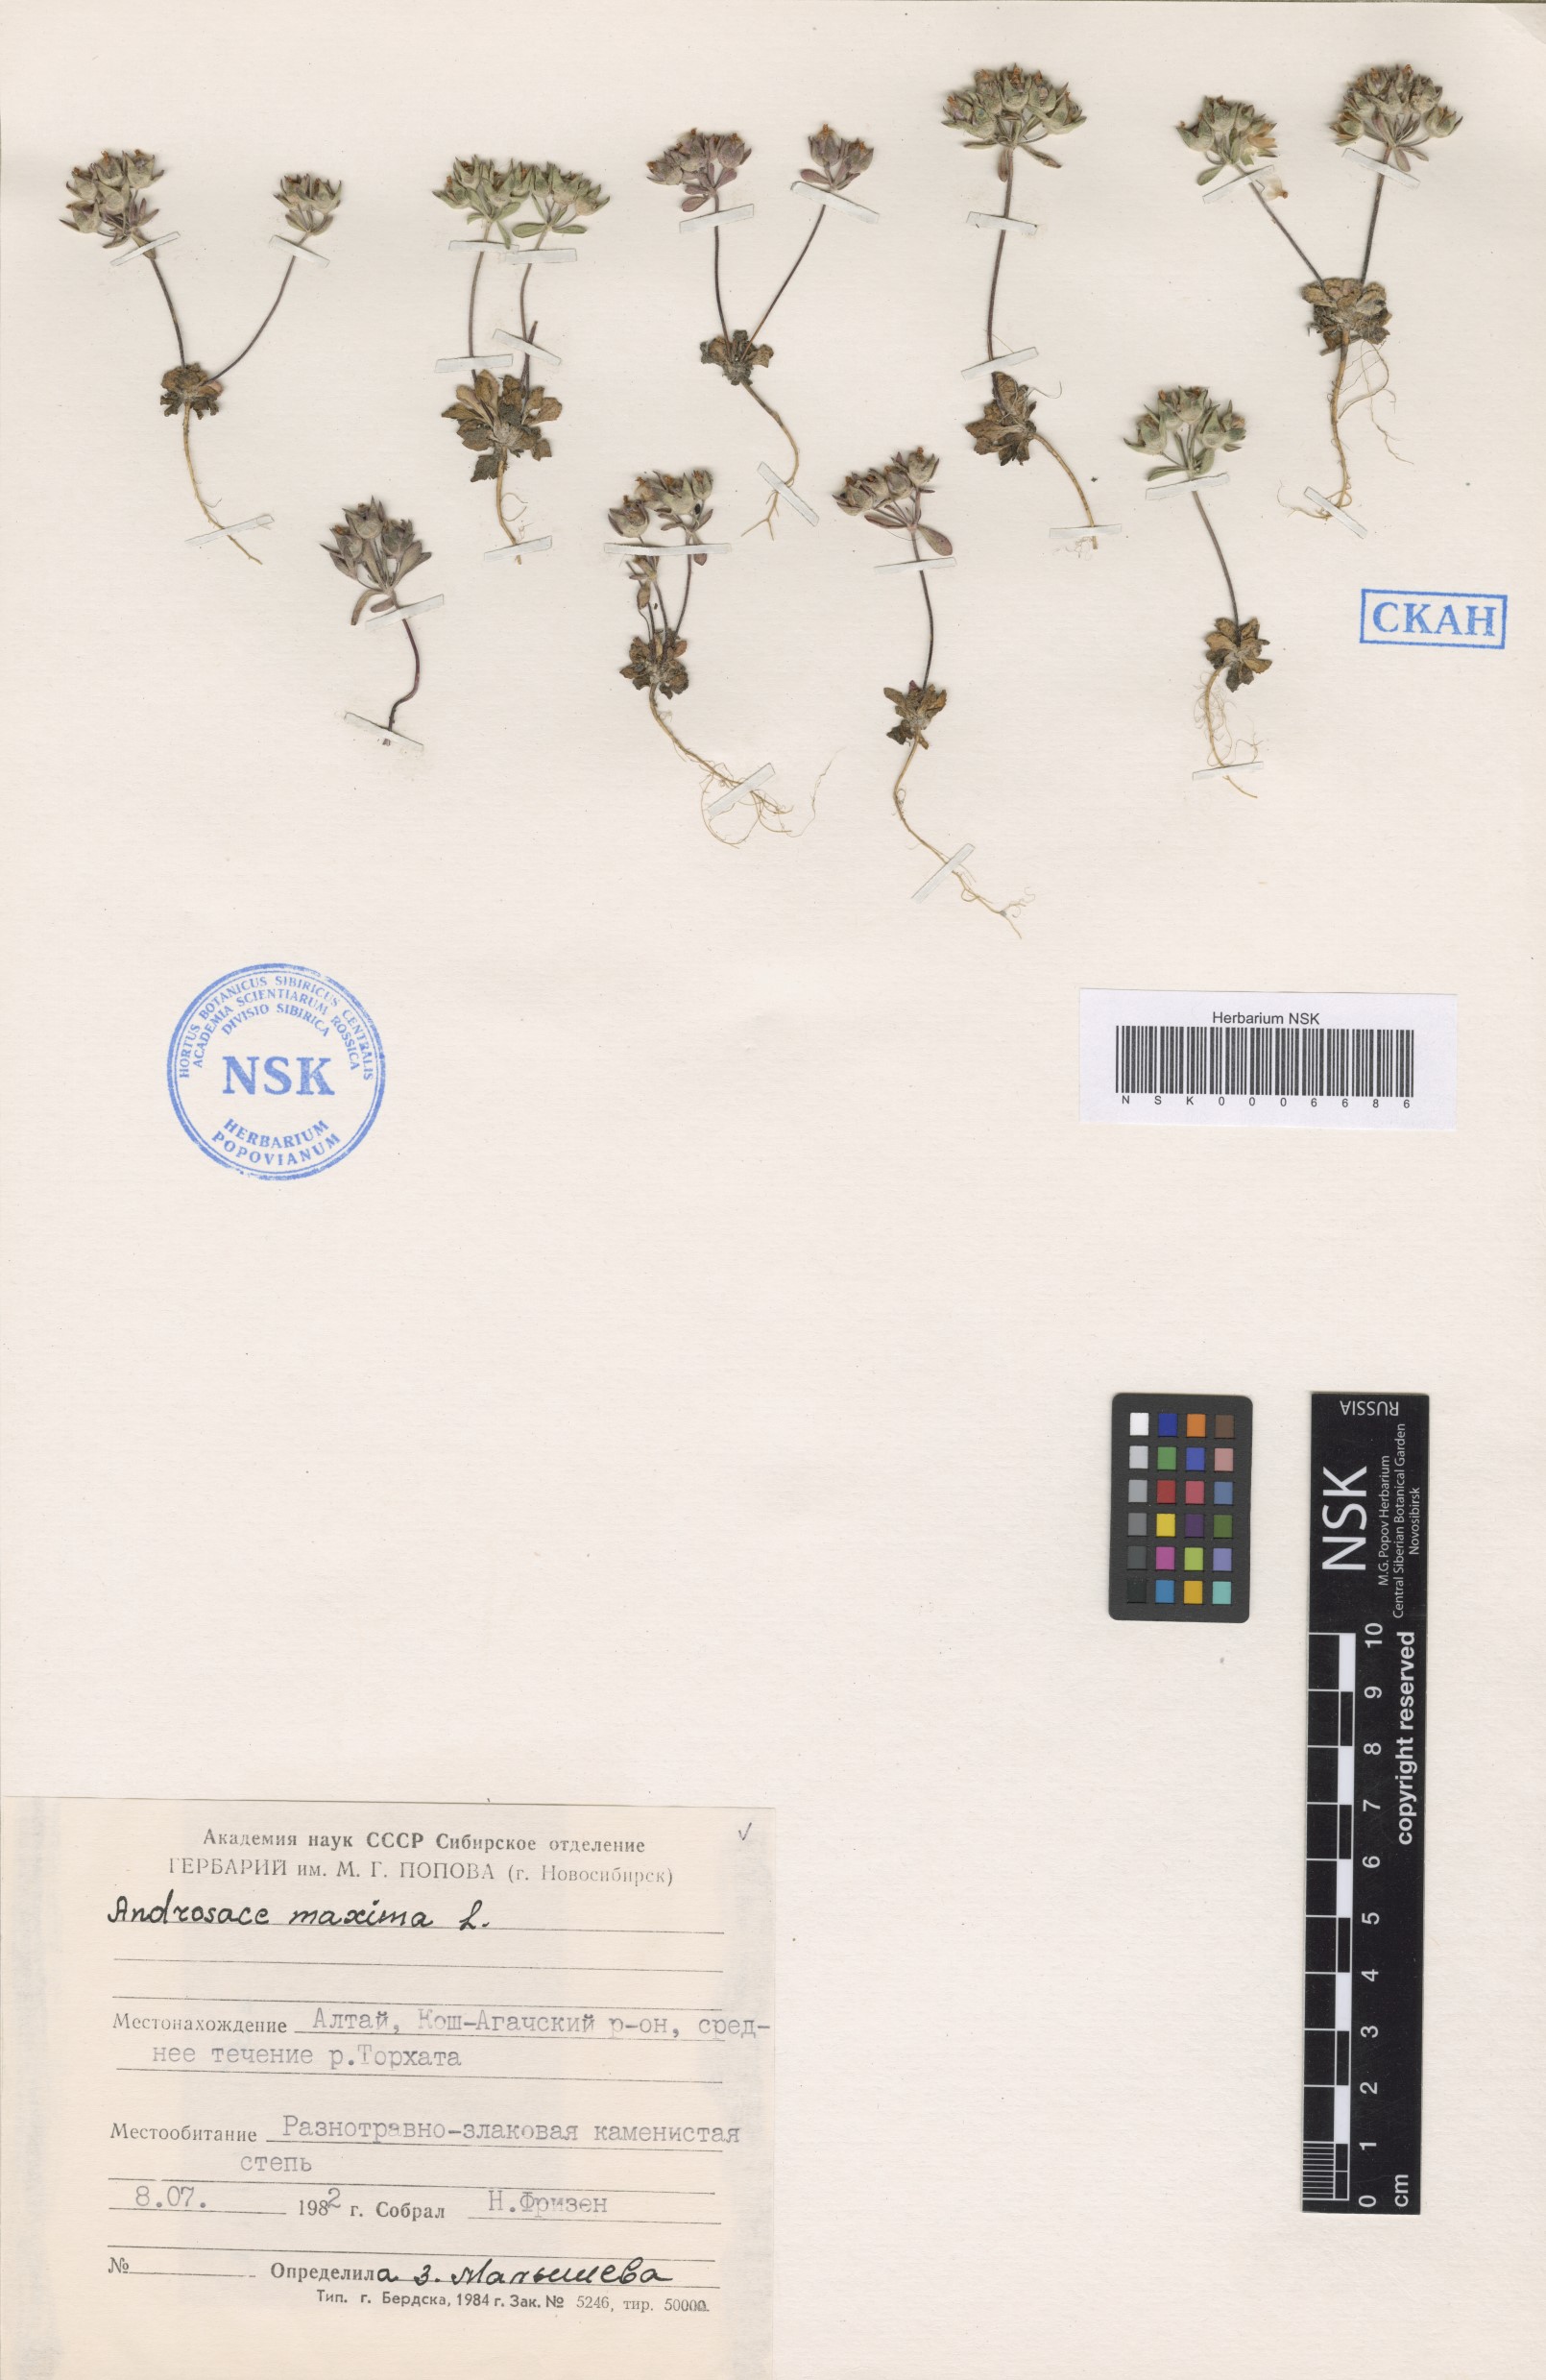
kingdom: Plantae
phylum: Tracheophyta
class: Magnoliopsida
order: Ericales
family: Primulaceae
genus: Androsace
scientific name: Androsace maxima
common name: Annual androsace
